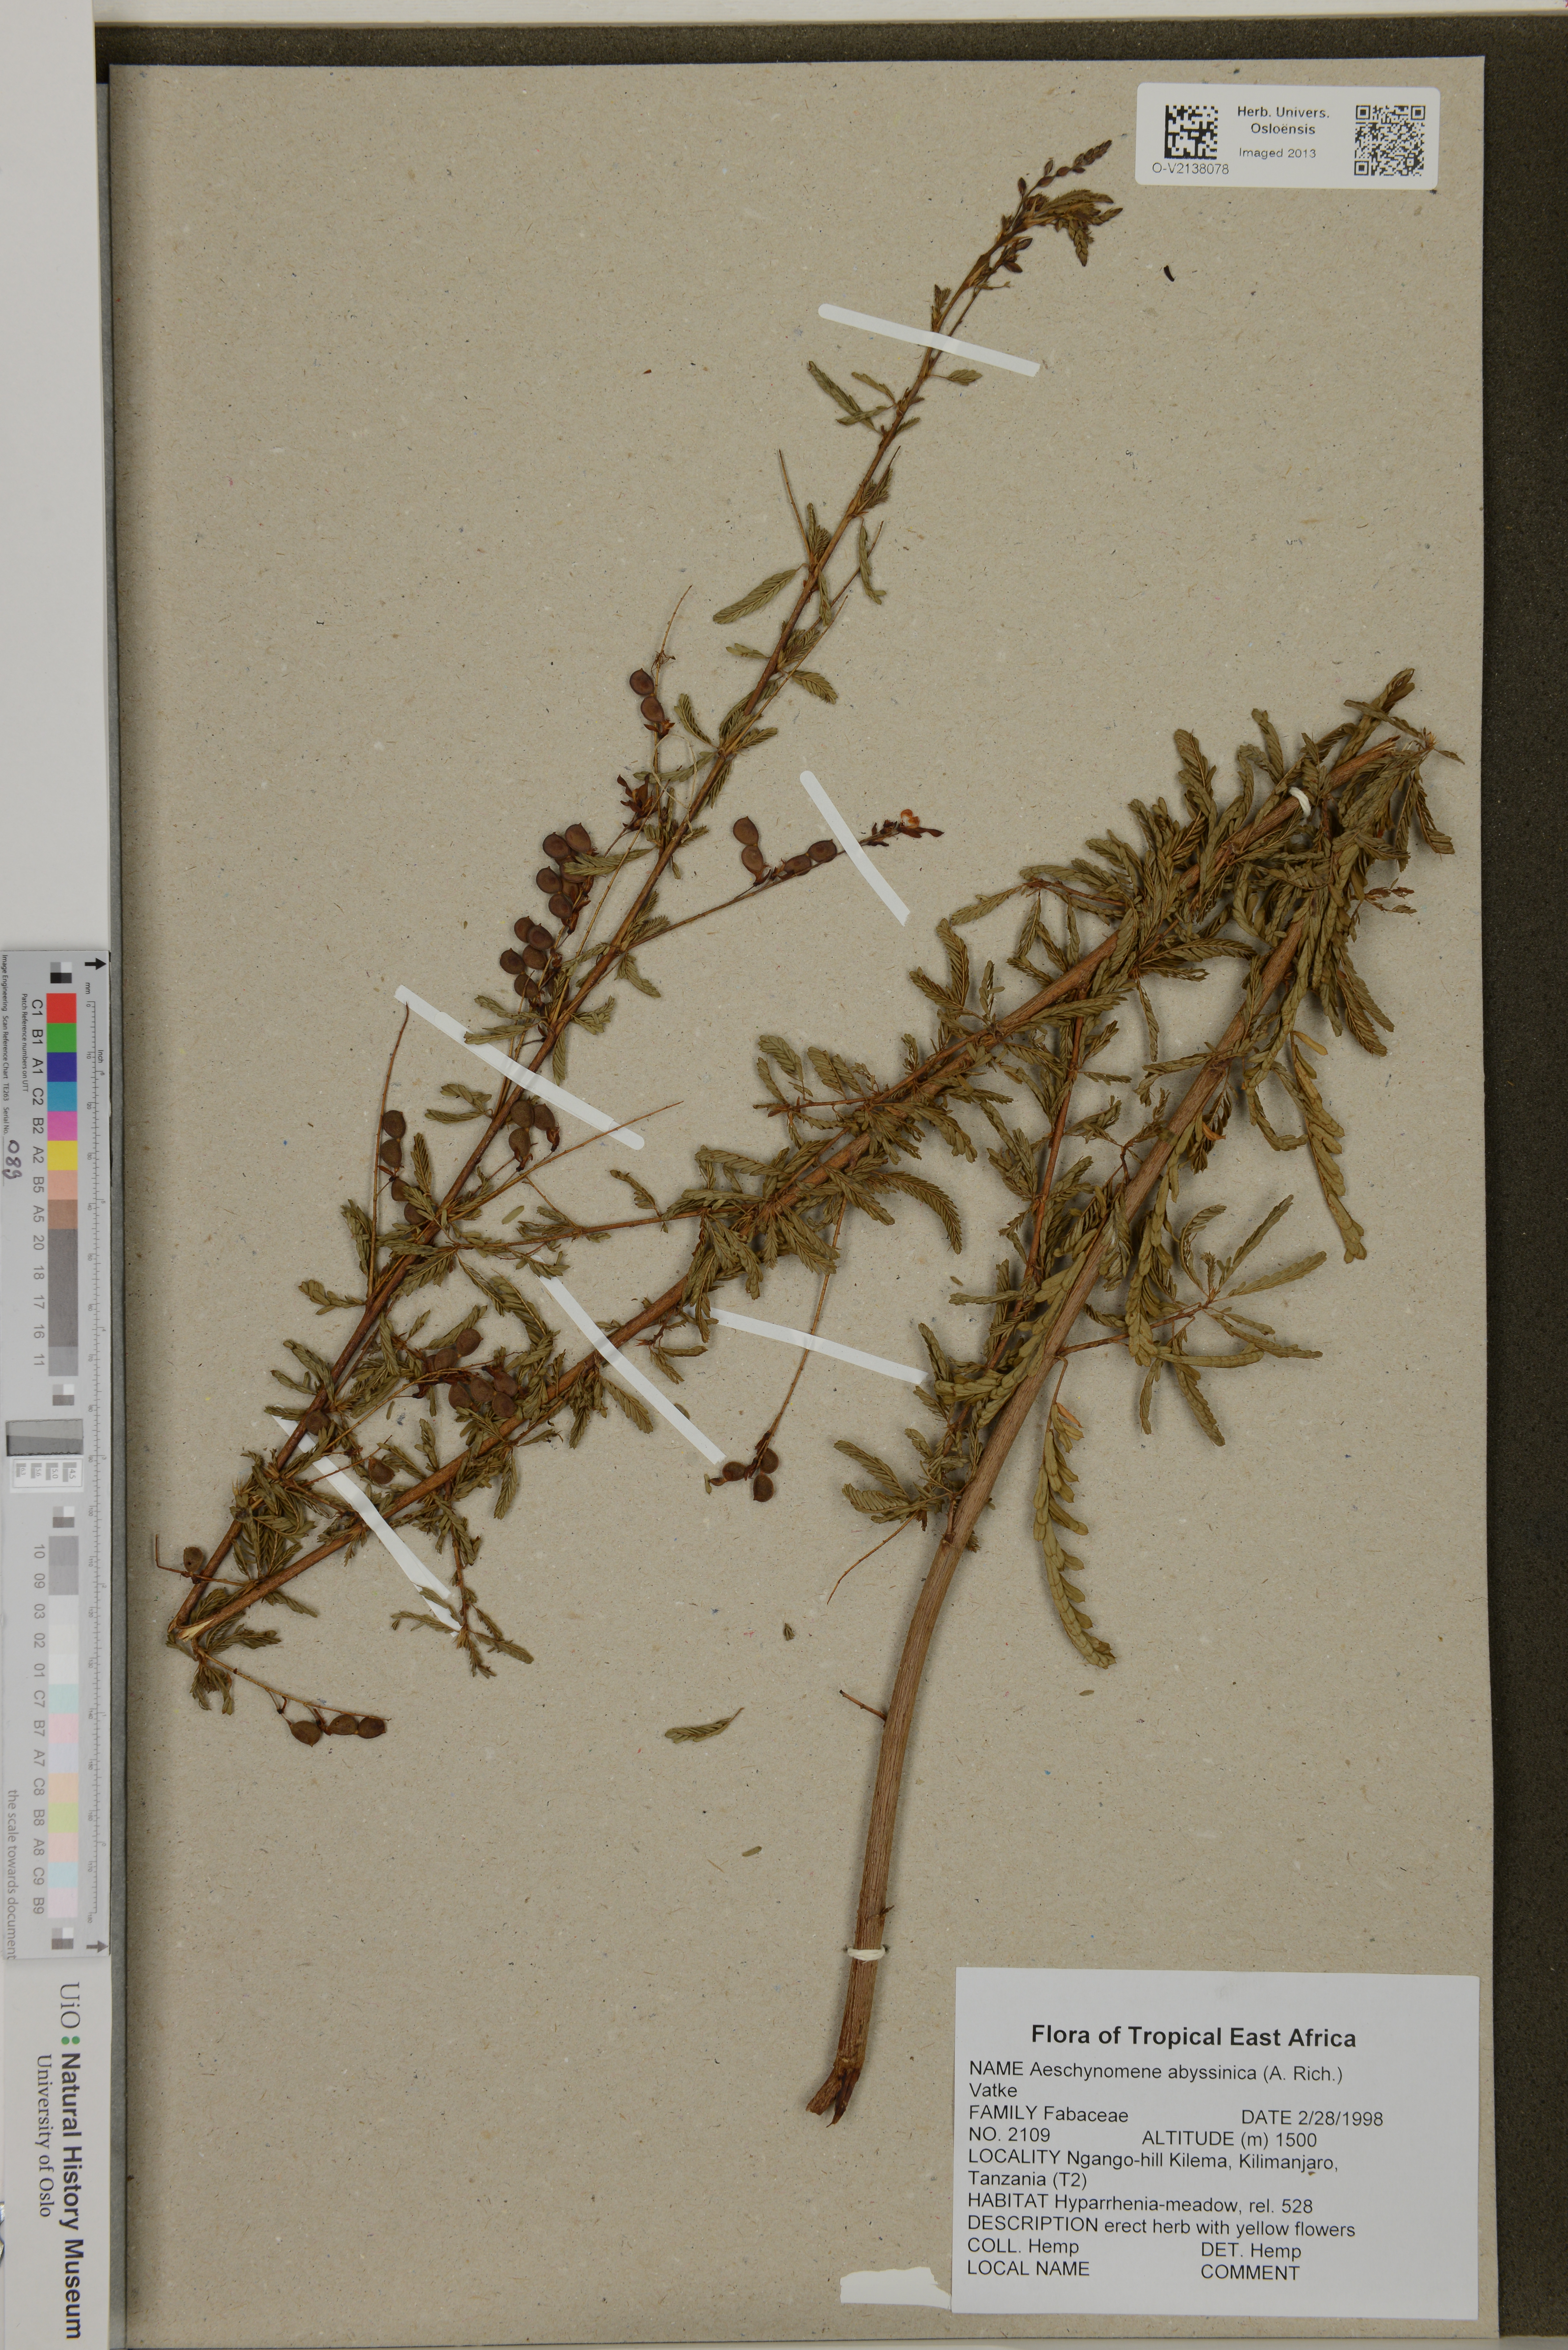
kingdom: Plantae
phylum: Tracheophyta
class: Magnoliopsida
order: Fabales
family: Fabaceae
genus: Aeschynomene
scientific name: Aeschynomene abyssinica
